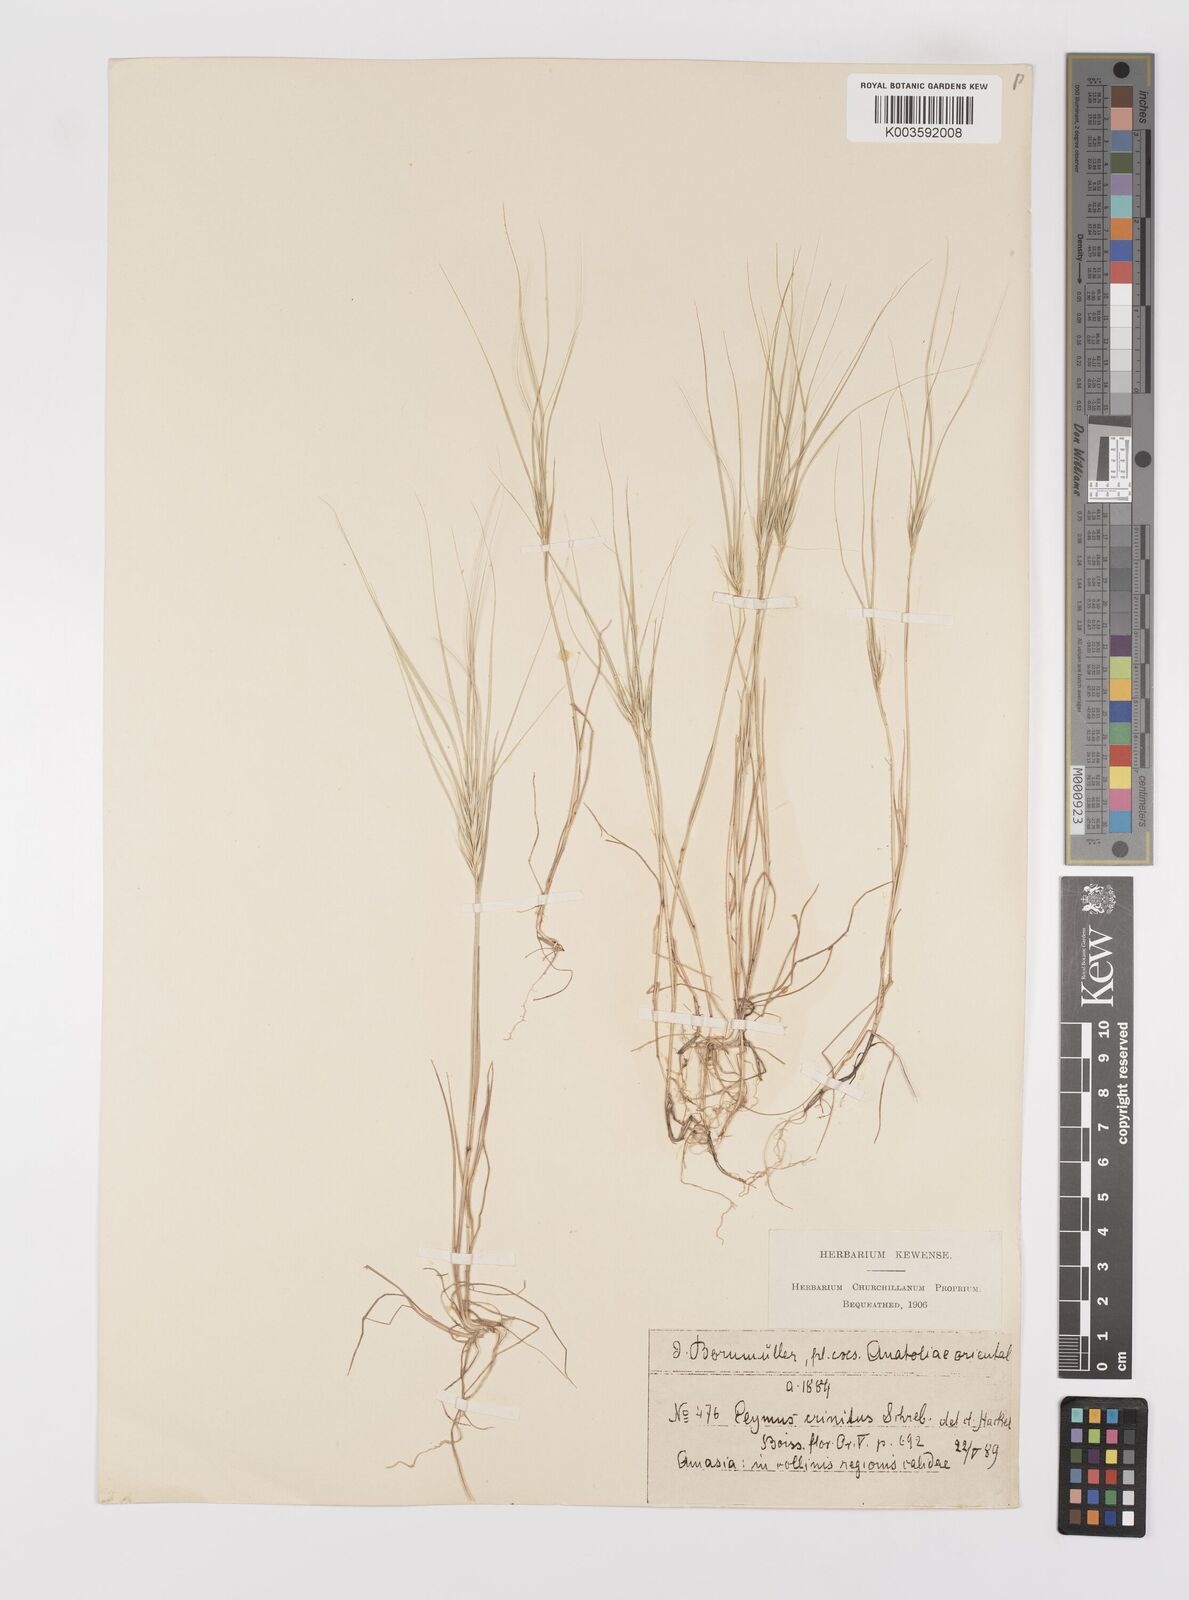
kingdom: Plantae
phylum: Tracheophyta
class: Liliopsida
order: Poales
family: Poaceae
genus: Taeniatherum
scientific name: Taeniatherum caput-medusae
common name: Medusahead
